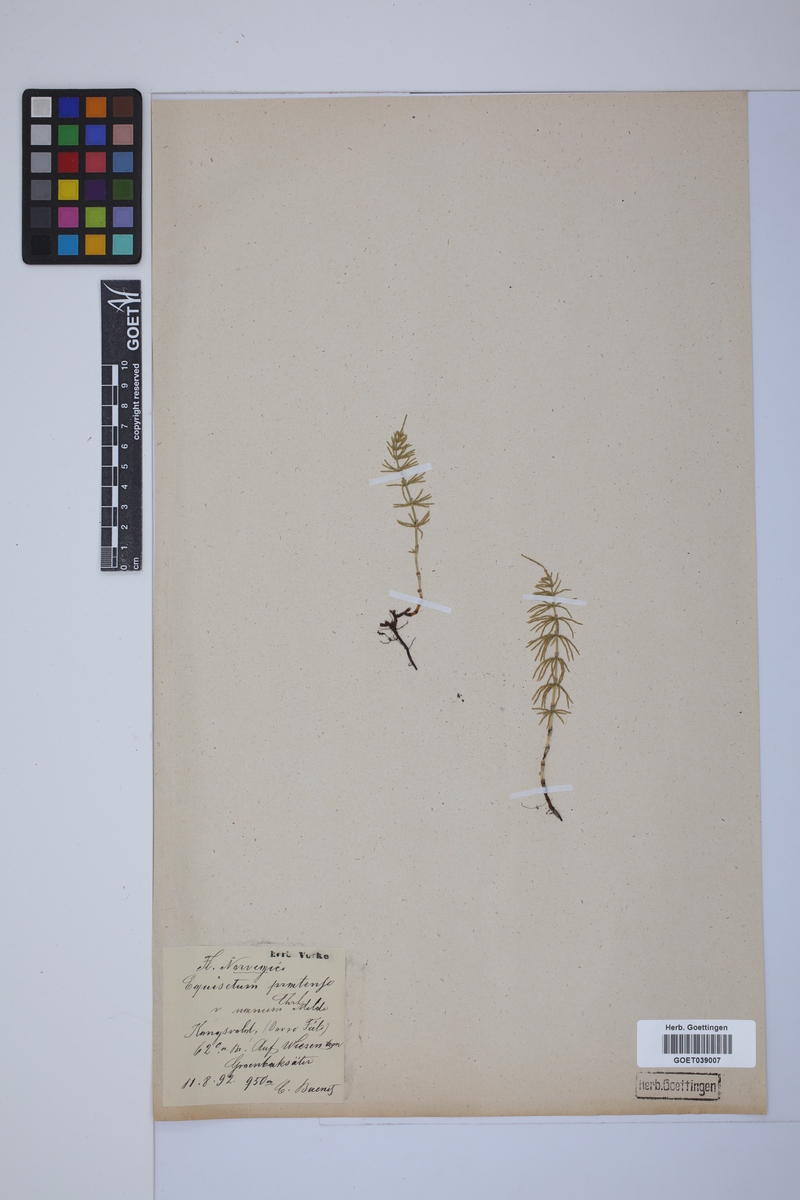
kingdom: Plantae
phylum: Tracheophyta
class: Polypodiopsida
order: Equisetales
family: Equisetaceae
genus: Equisetum
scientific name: Equisetum pratense
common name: Meadow horsetail
